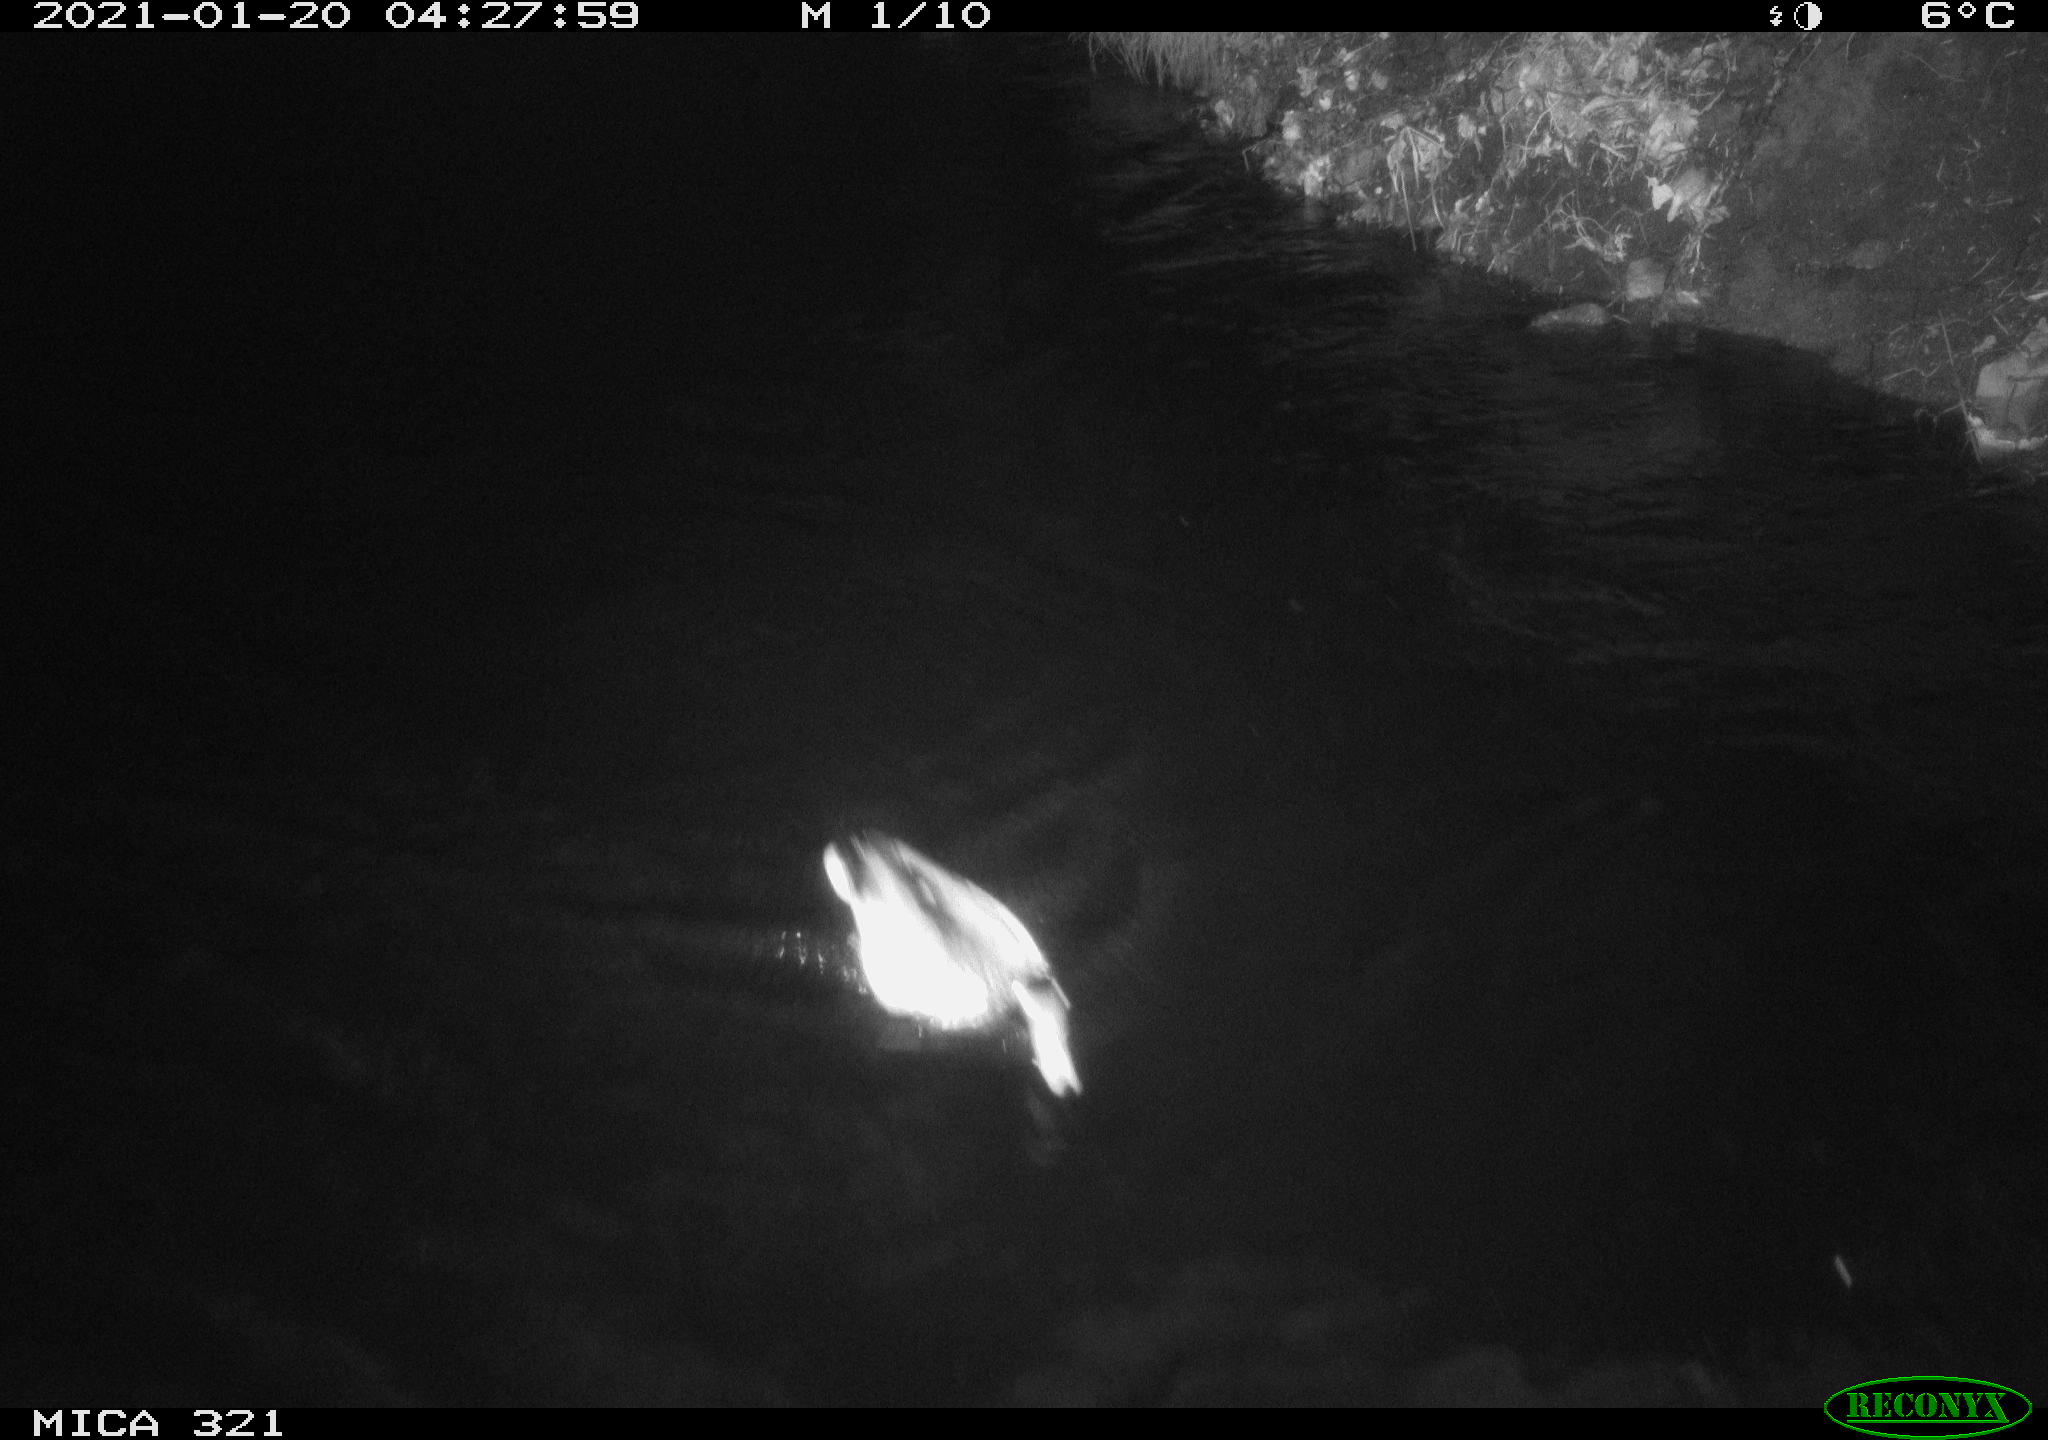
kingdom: Animalia
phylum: Chordata
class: Aves
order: Anseriformes
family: Anatidae
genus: Anas
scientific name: Anas platyrhynchos
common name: Mallard
